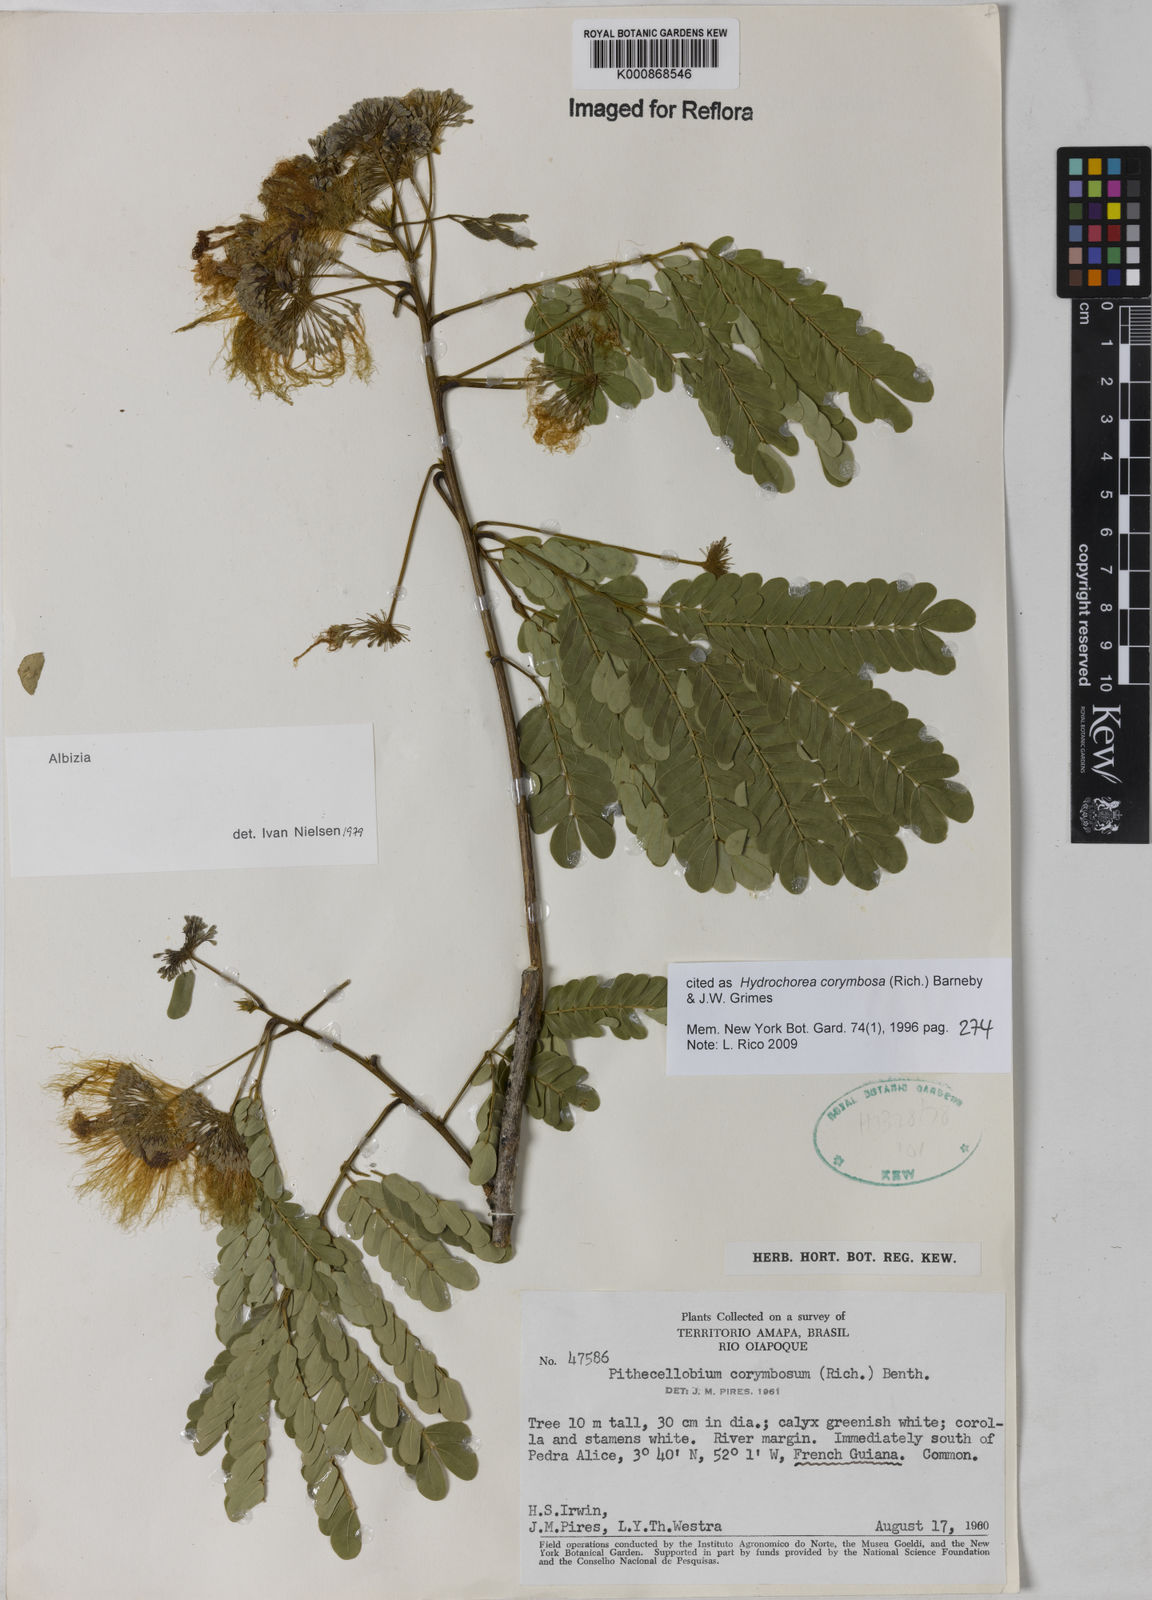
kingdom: Plantae
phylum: Tracheophyta
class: Magnoliopsida
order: Fabales
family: Fabaceae
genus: Hydrochorea
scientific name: Hydrochorea corymbosa
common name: Swamp manariballi
